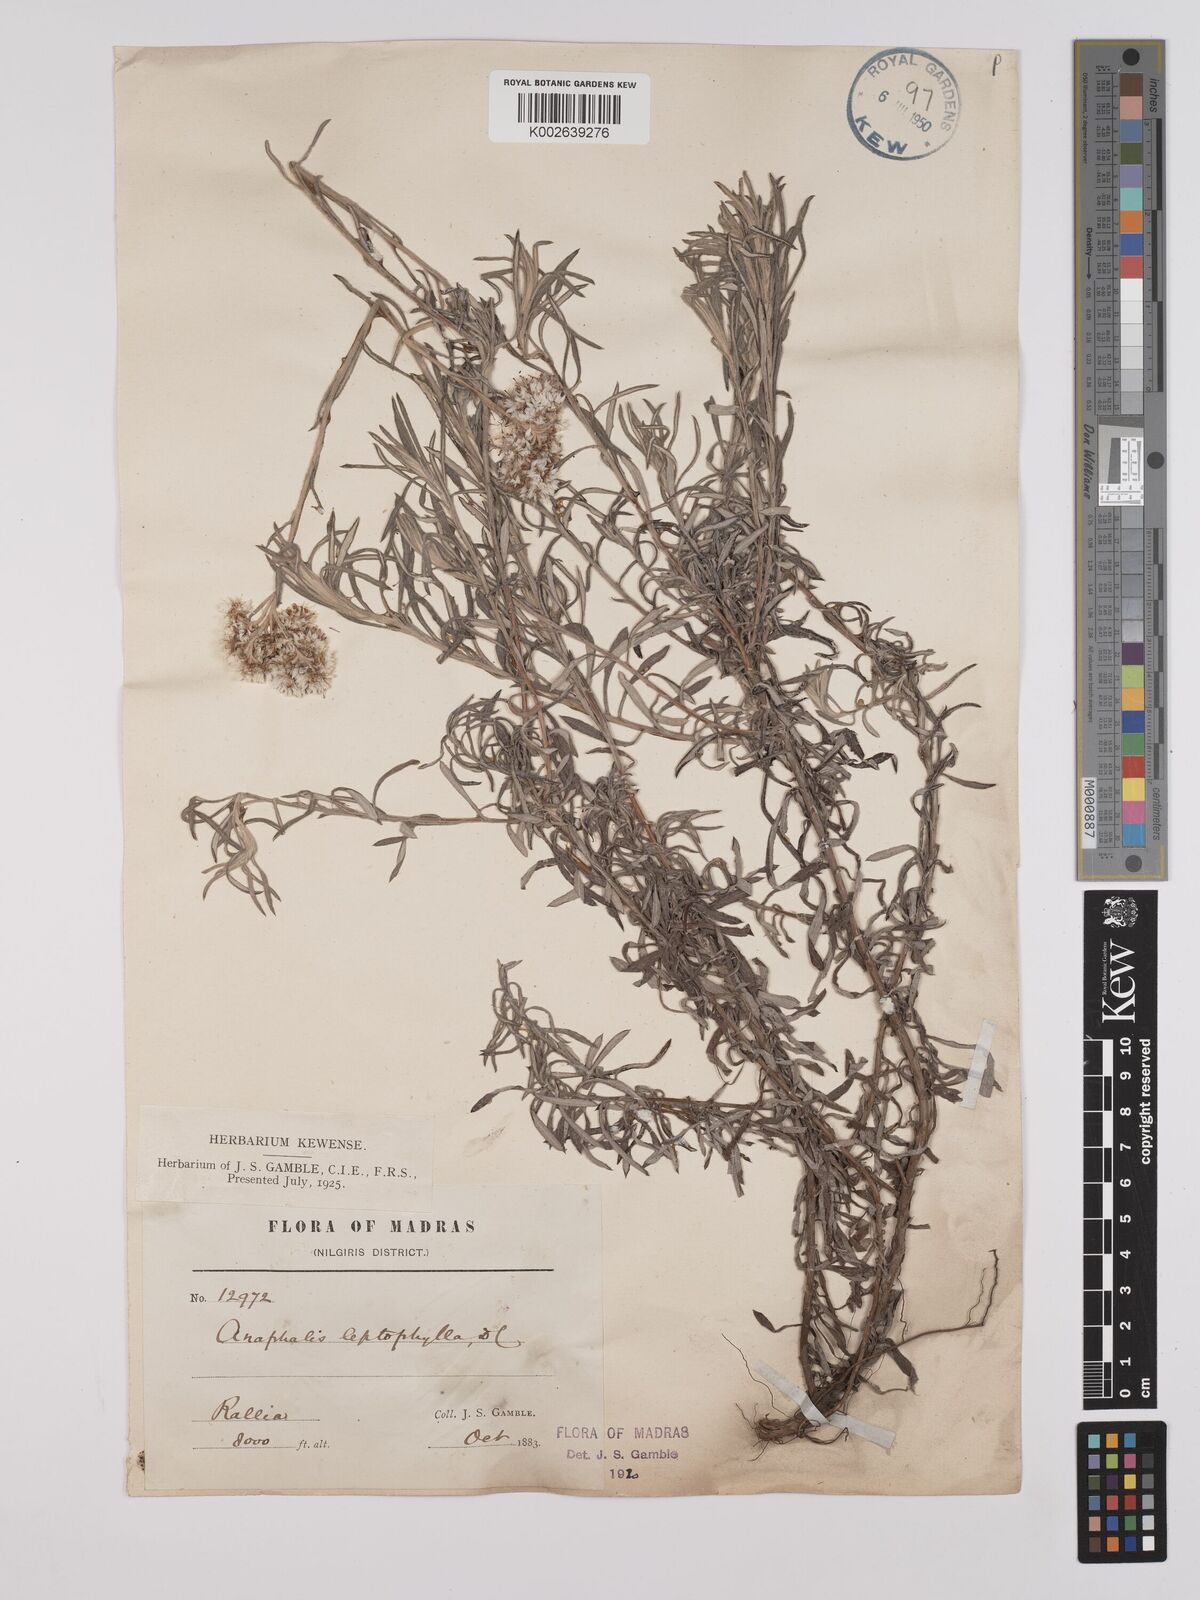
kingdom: Plantae
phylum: Tracheophyta
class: Magnoliopsida
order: Asterales
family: Asteraceae
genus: Anaphalis
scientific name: Anaphalis leptophylla
